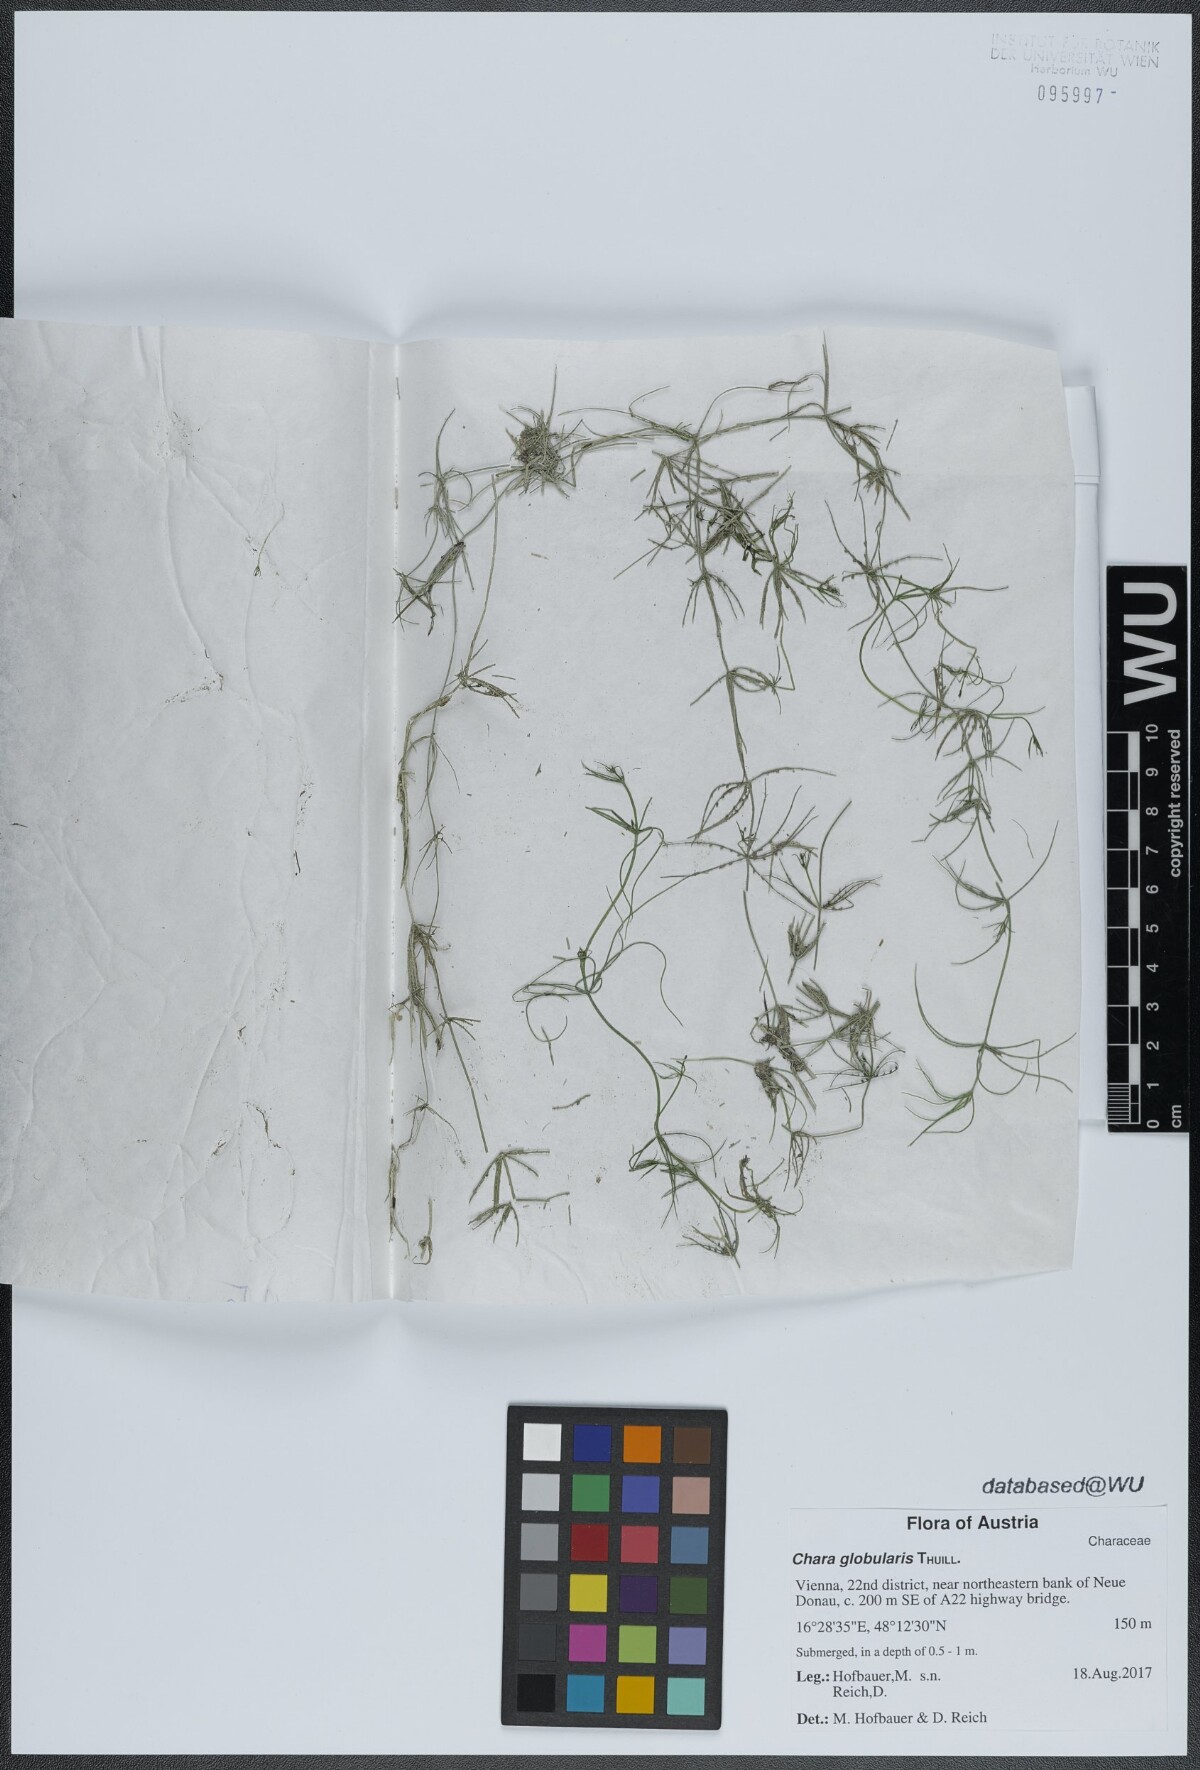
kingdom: Plantae
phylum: Charophyta
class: Charophyceae
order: Charales
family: Characeae
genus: Chara
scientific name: Chara globularis
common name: Fragile stonewort
